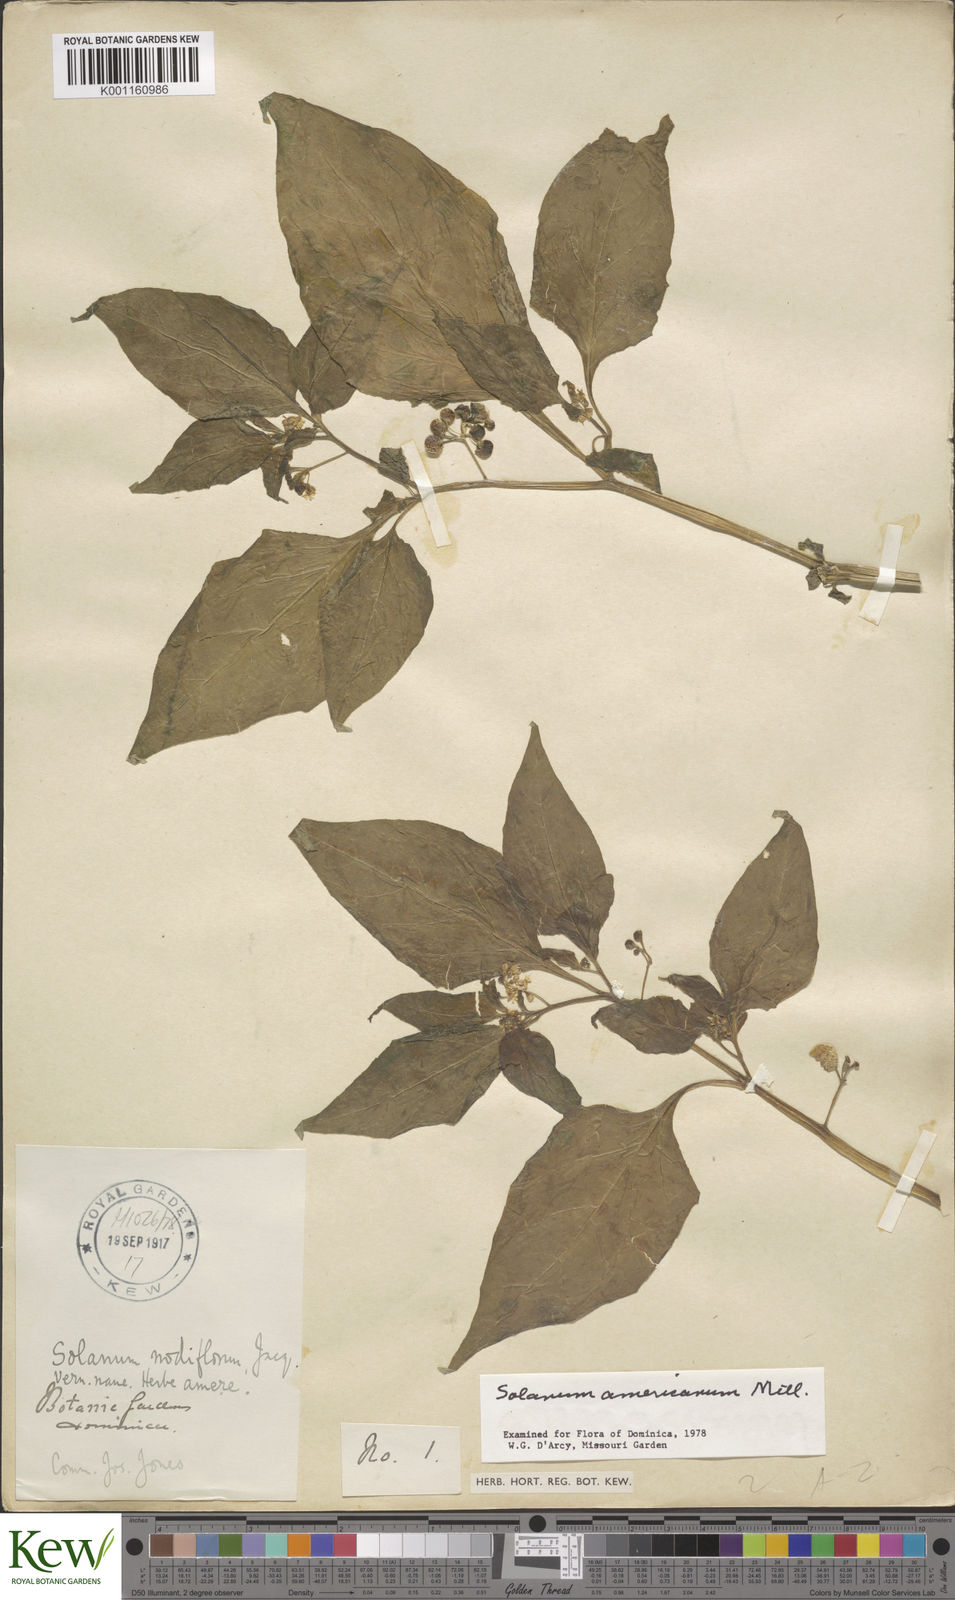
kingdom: Plantae
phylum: Tracheophyta
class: Magnoliopsida
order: Solanales
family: Solanaceae
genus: Solanum
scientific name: Solanum americanum
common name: American black nightshade
